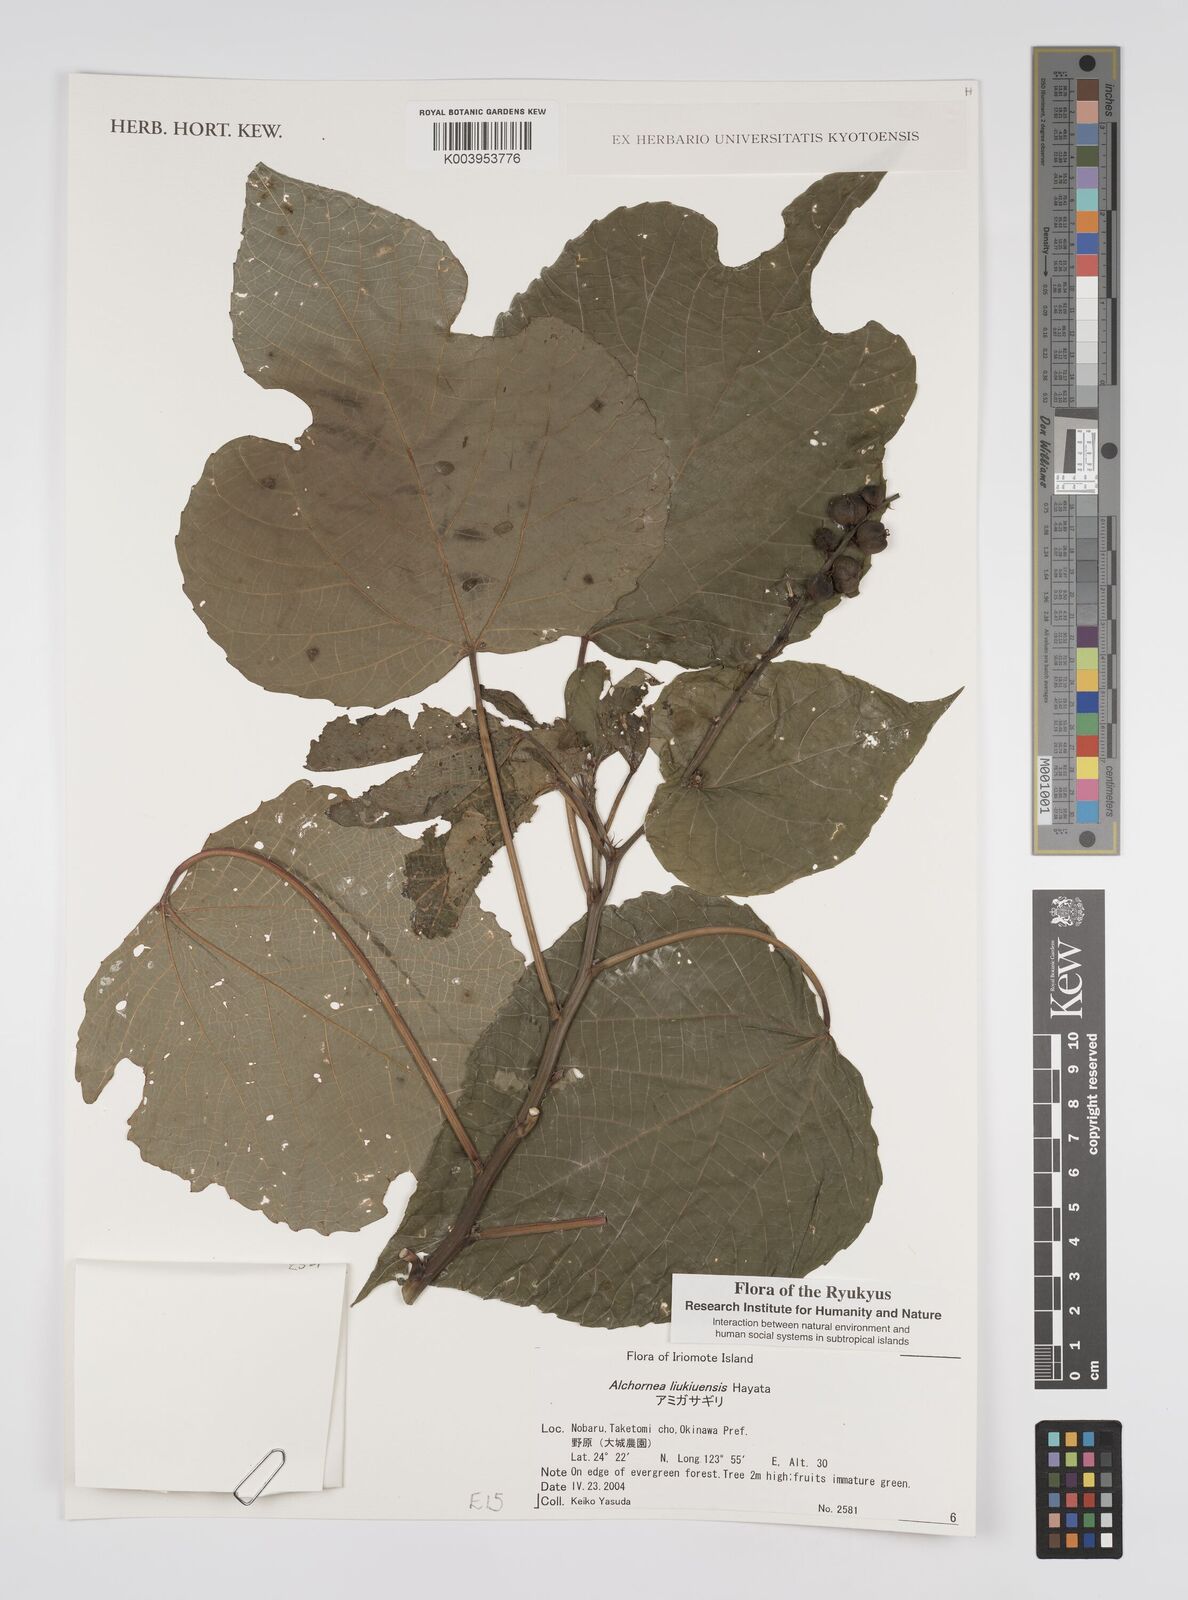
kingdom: Plantae
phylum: Tracheophyta
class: Magnoliopsida
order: Malpighiales
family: Euphorbiaceae
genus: Alchornea
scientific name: Alchornea liukiuensis
